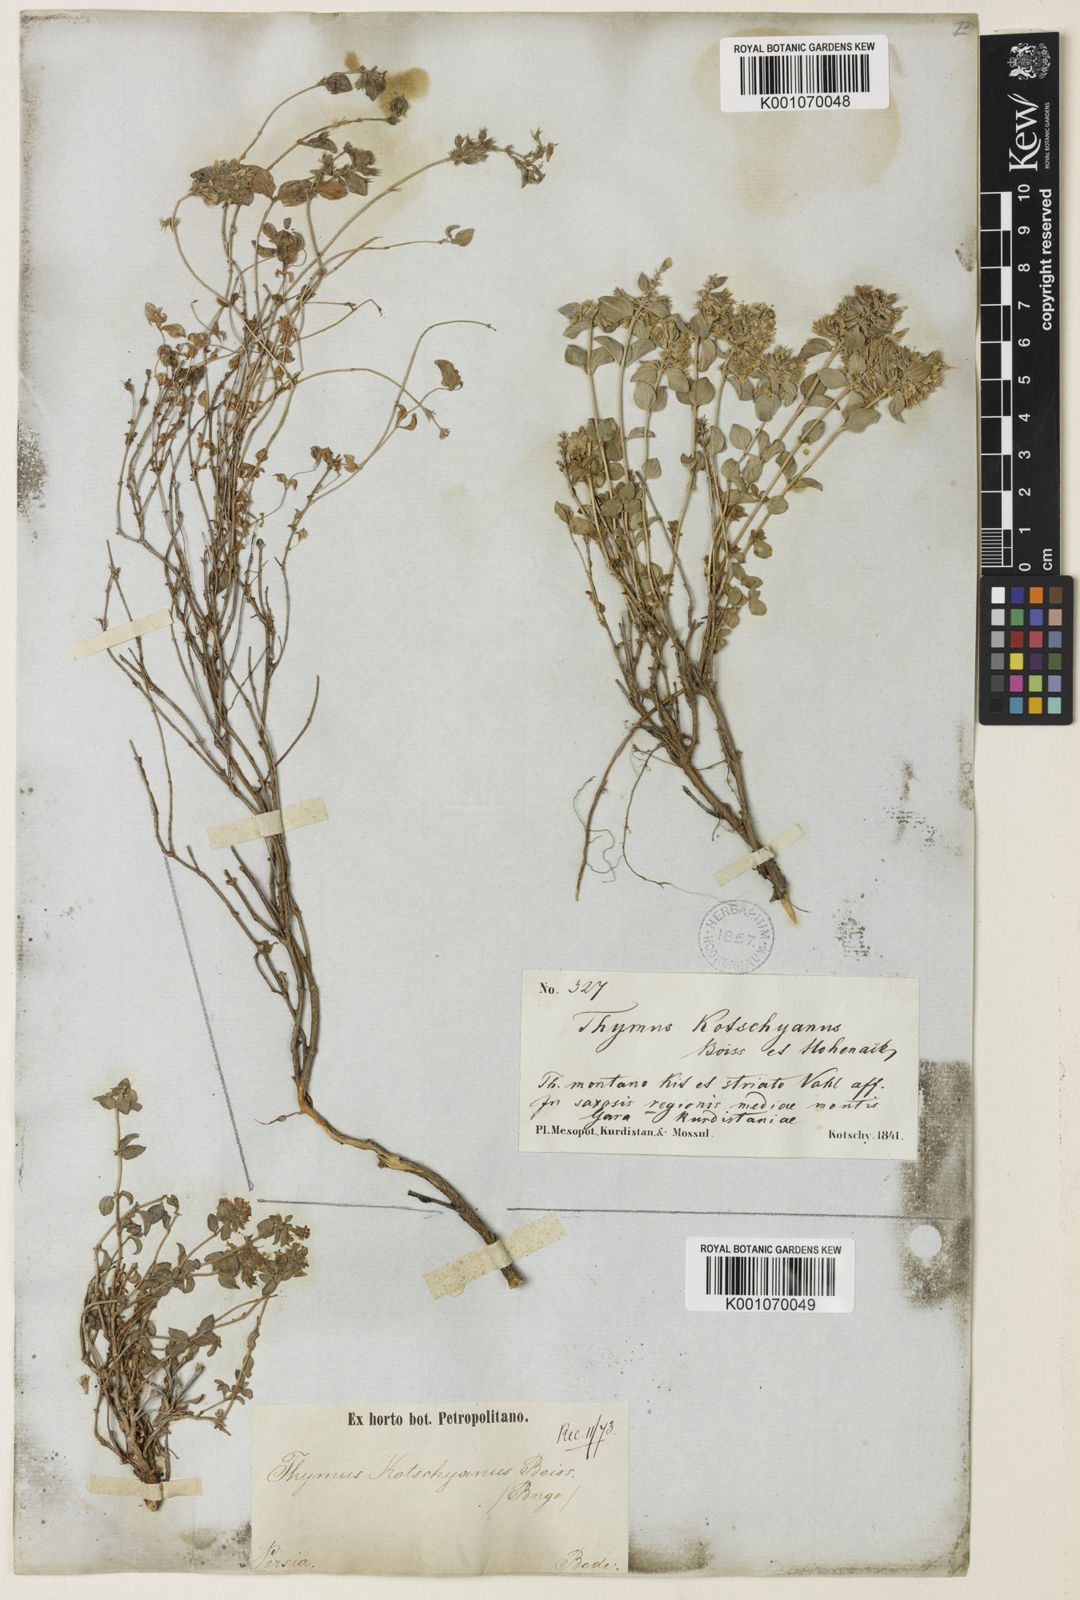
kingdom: Plantae
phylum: Tracheophyta
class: Magnoliopsida
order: Lamiales
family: Lamiaceae
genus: Thymus
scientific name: Thymus serpyllum
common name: Breckland thyme
